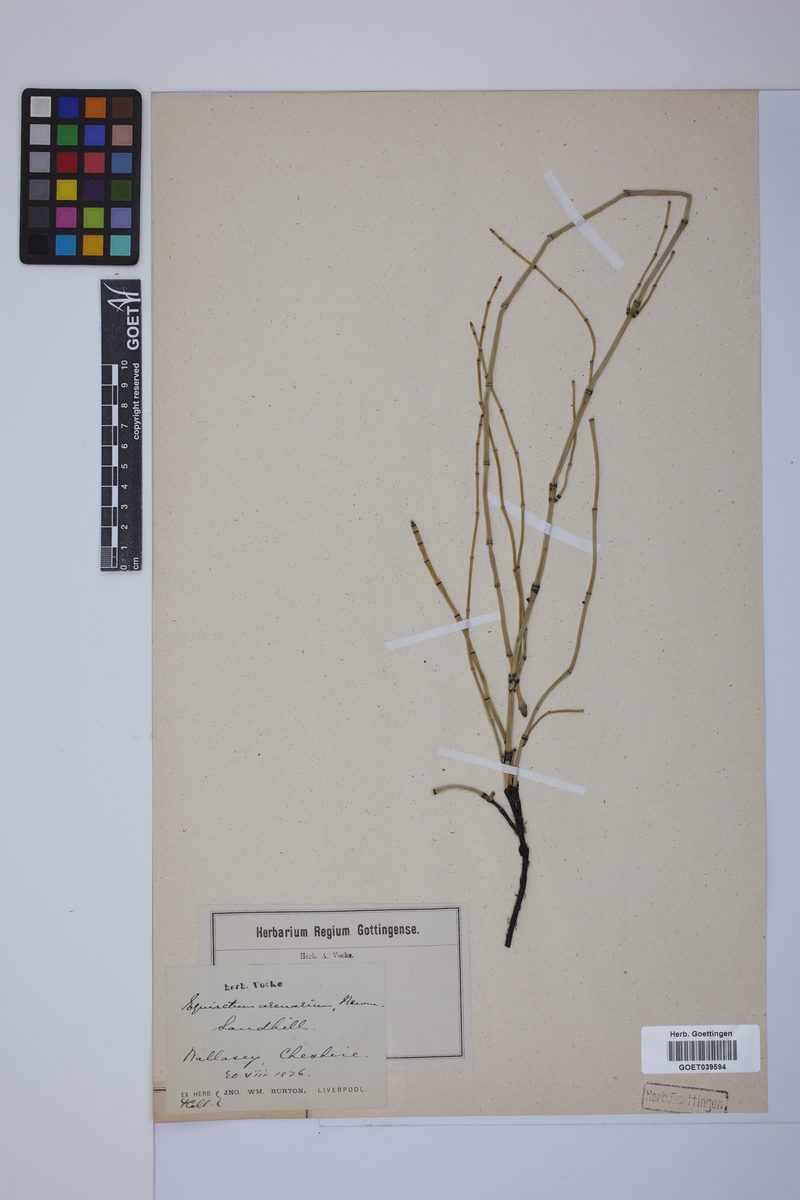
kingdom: Plantae
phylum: Tracheophyta
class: Polypodiopsida
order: Equisetales
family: Equisetaceae
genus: Equisetum
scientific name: Equisetum variegatum
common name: Variegated horsetail
